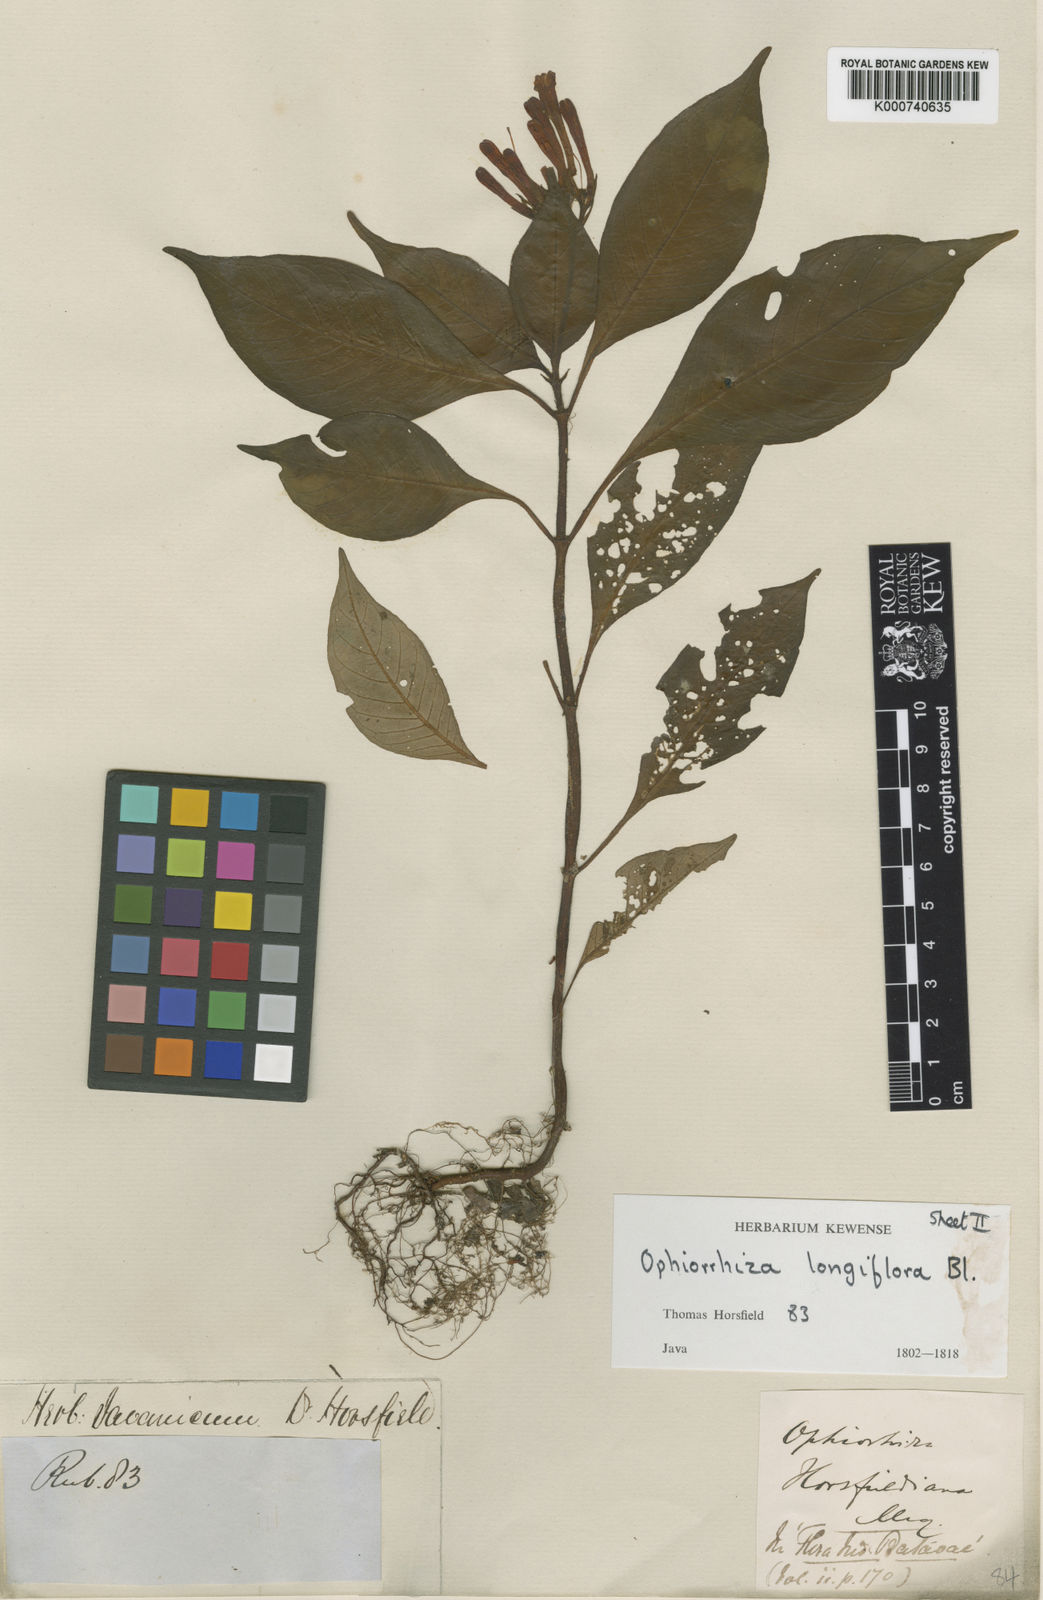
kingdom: Plantae
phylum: Tracheophyta
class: Magnoliopsida
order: Gentianales
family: Rubiaceae
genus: Ophiorrhiza
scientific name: Ophiorrhiza longiflora
